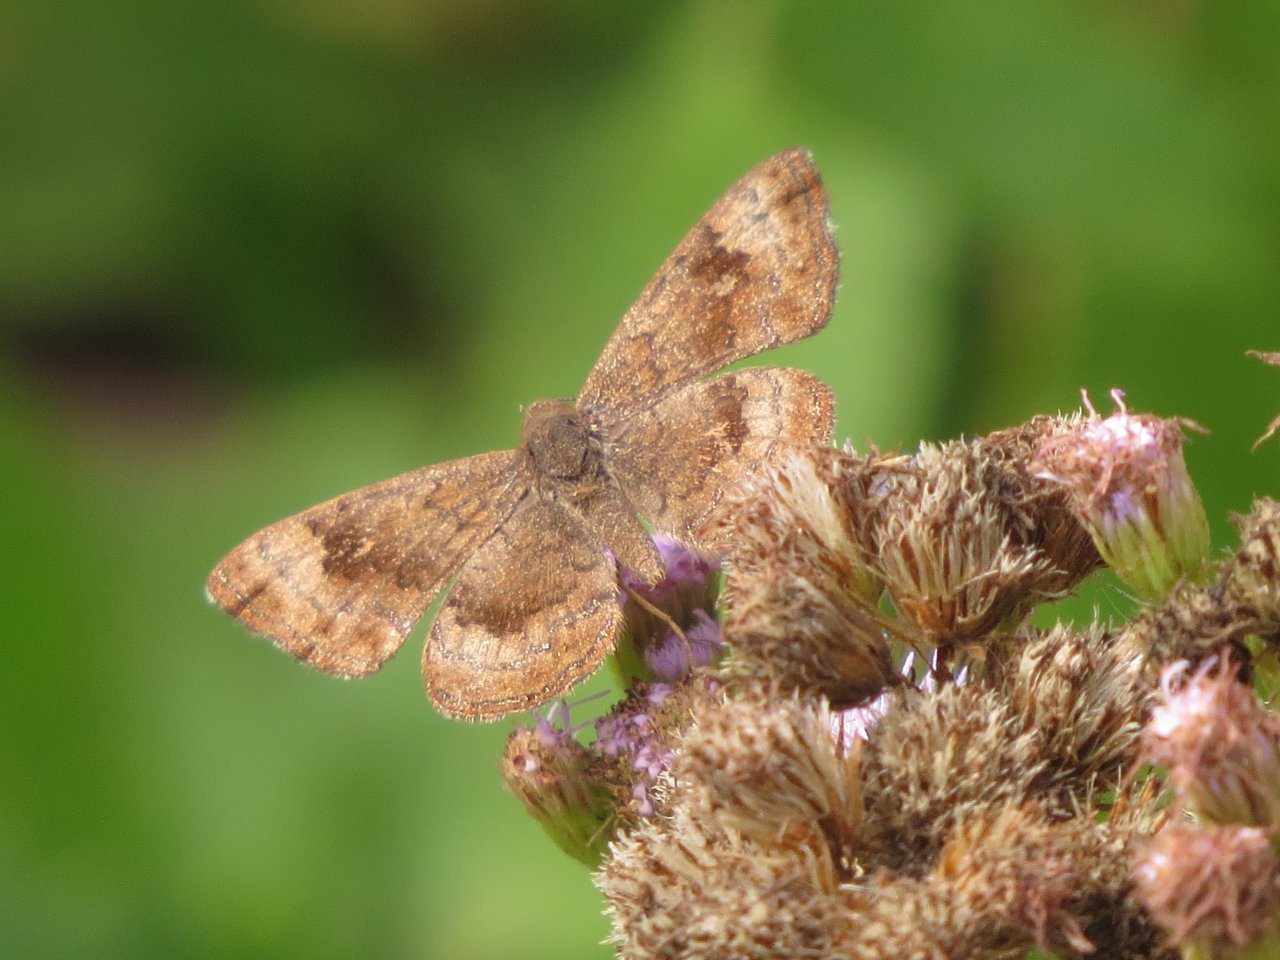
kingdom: Animalia
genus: Calephelis
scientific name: Calephelis nemesis
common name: Fatal Metalmark
